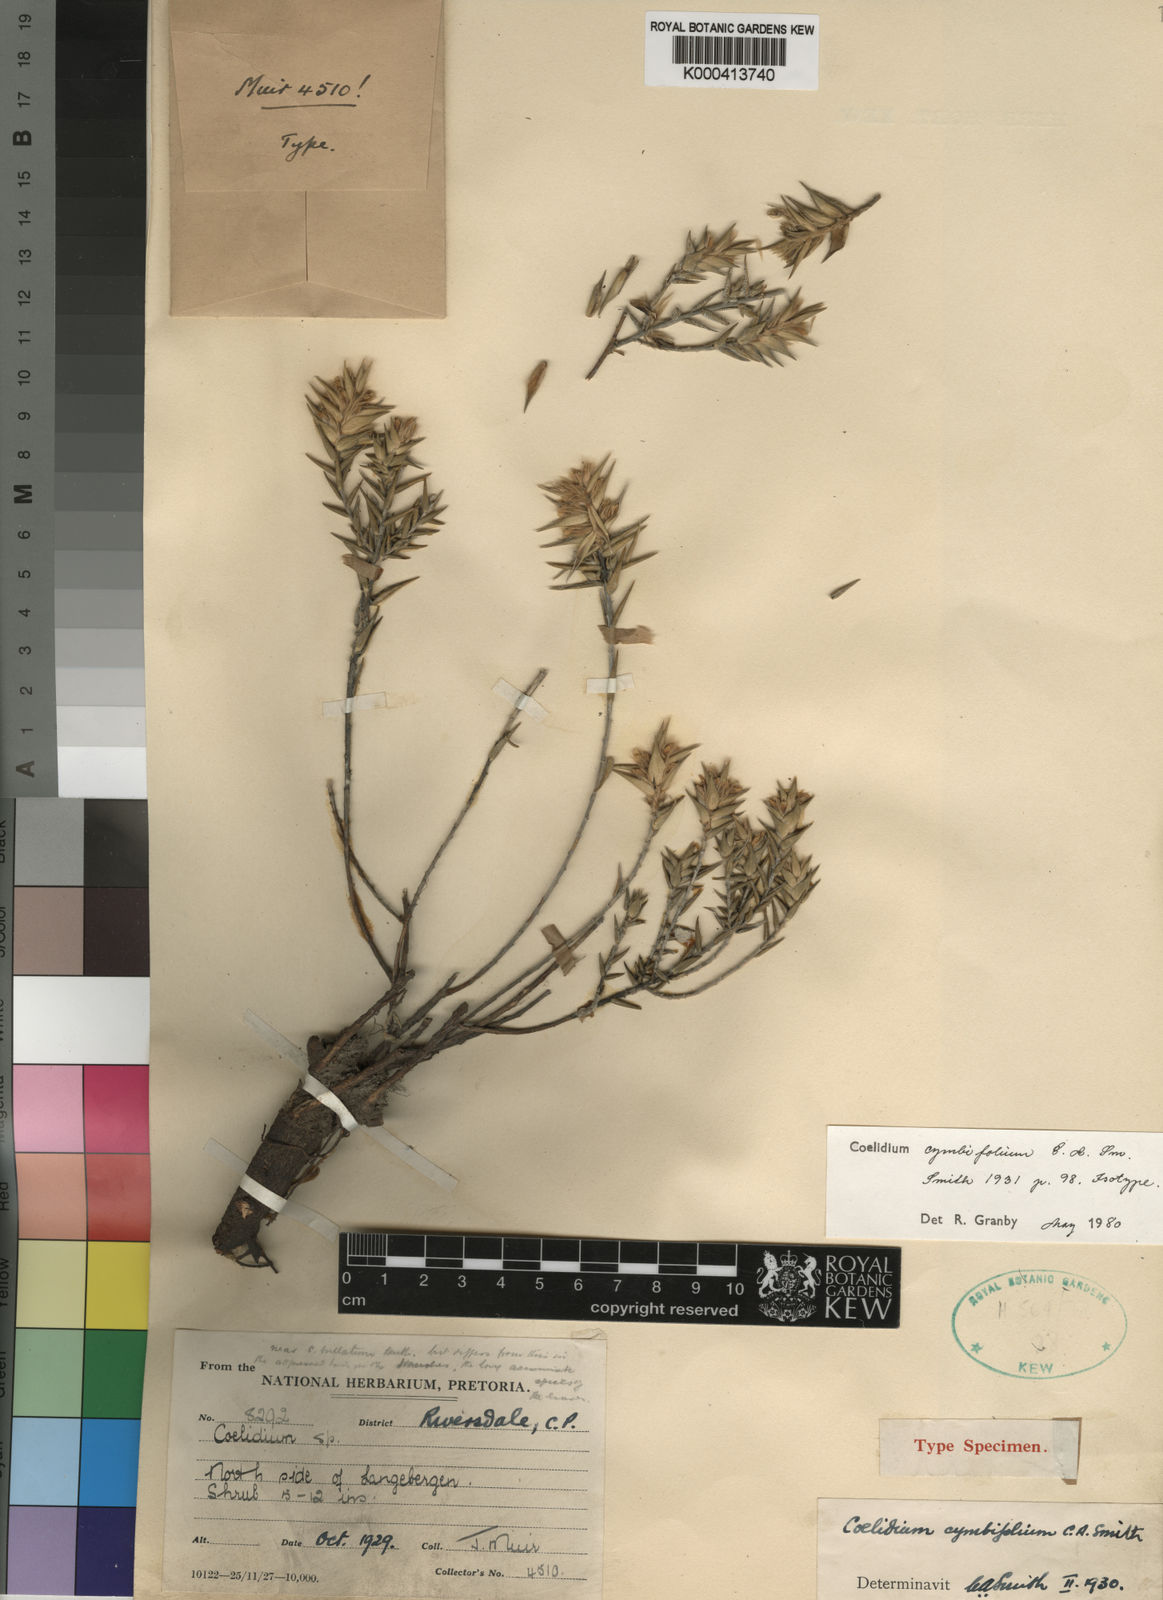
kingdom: Plantae
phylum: Tracheophyta
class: Magnoliopsida
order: Fabales
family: Fabaceae
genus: Amphithalea
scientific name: Amphithalea cymbifolia
